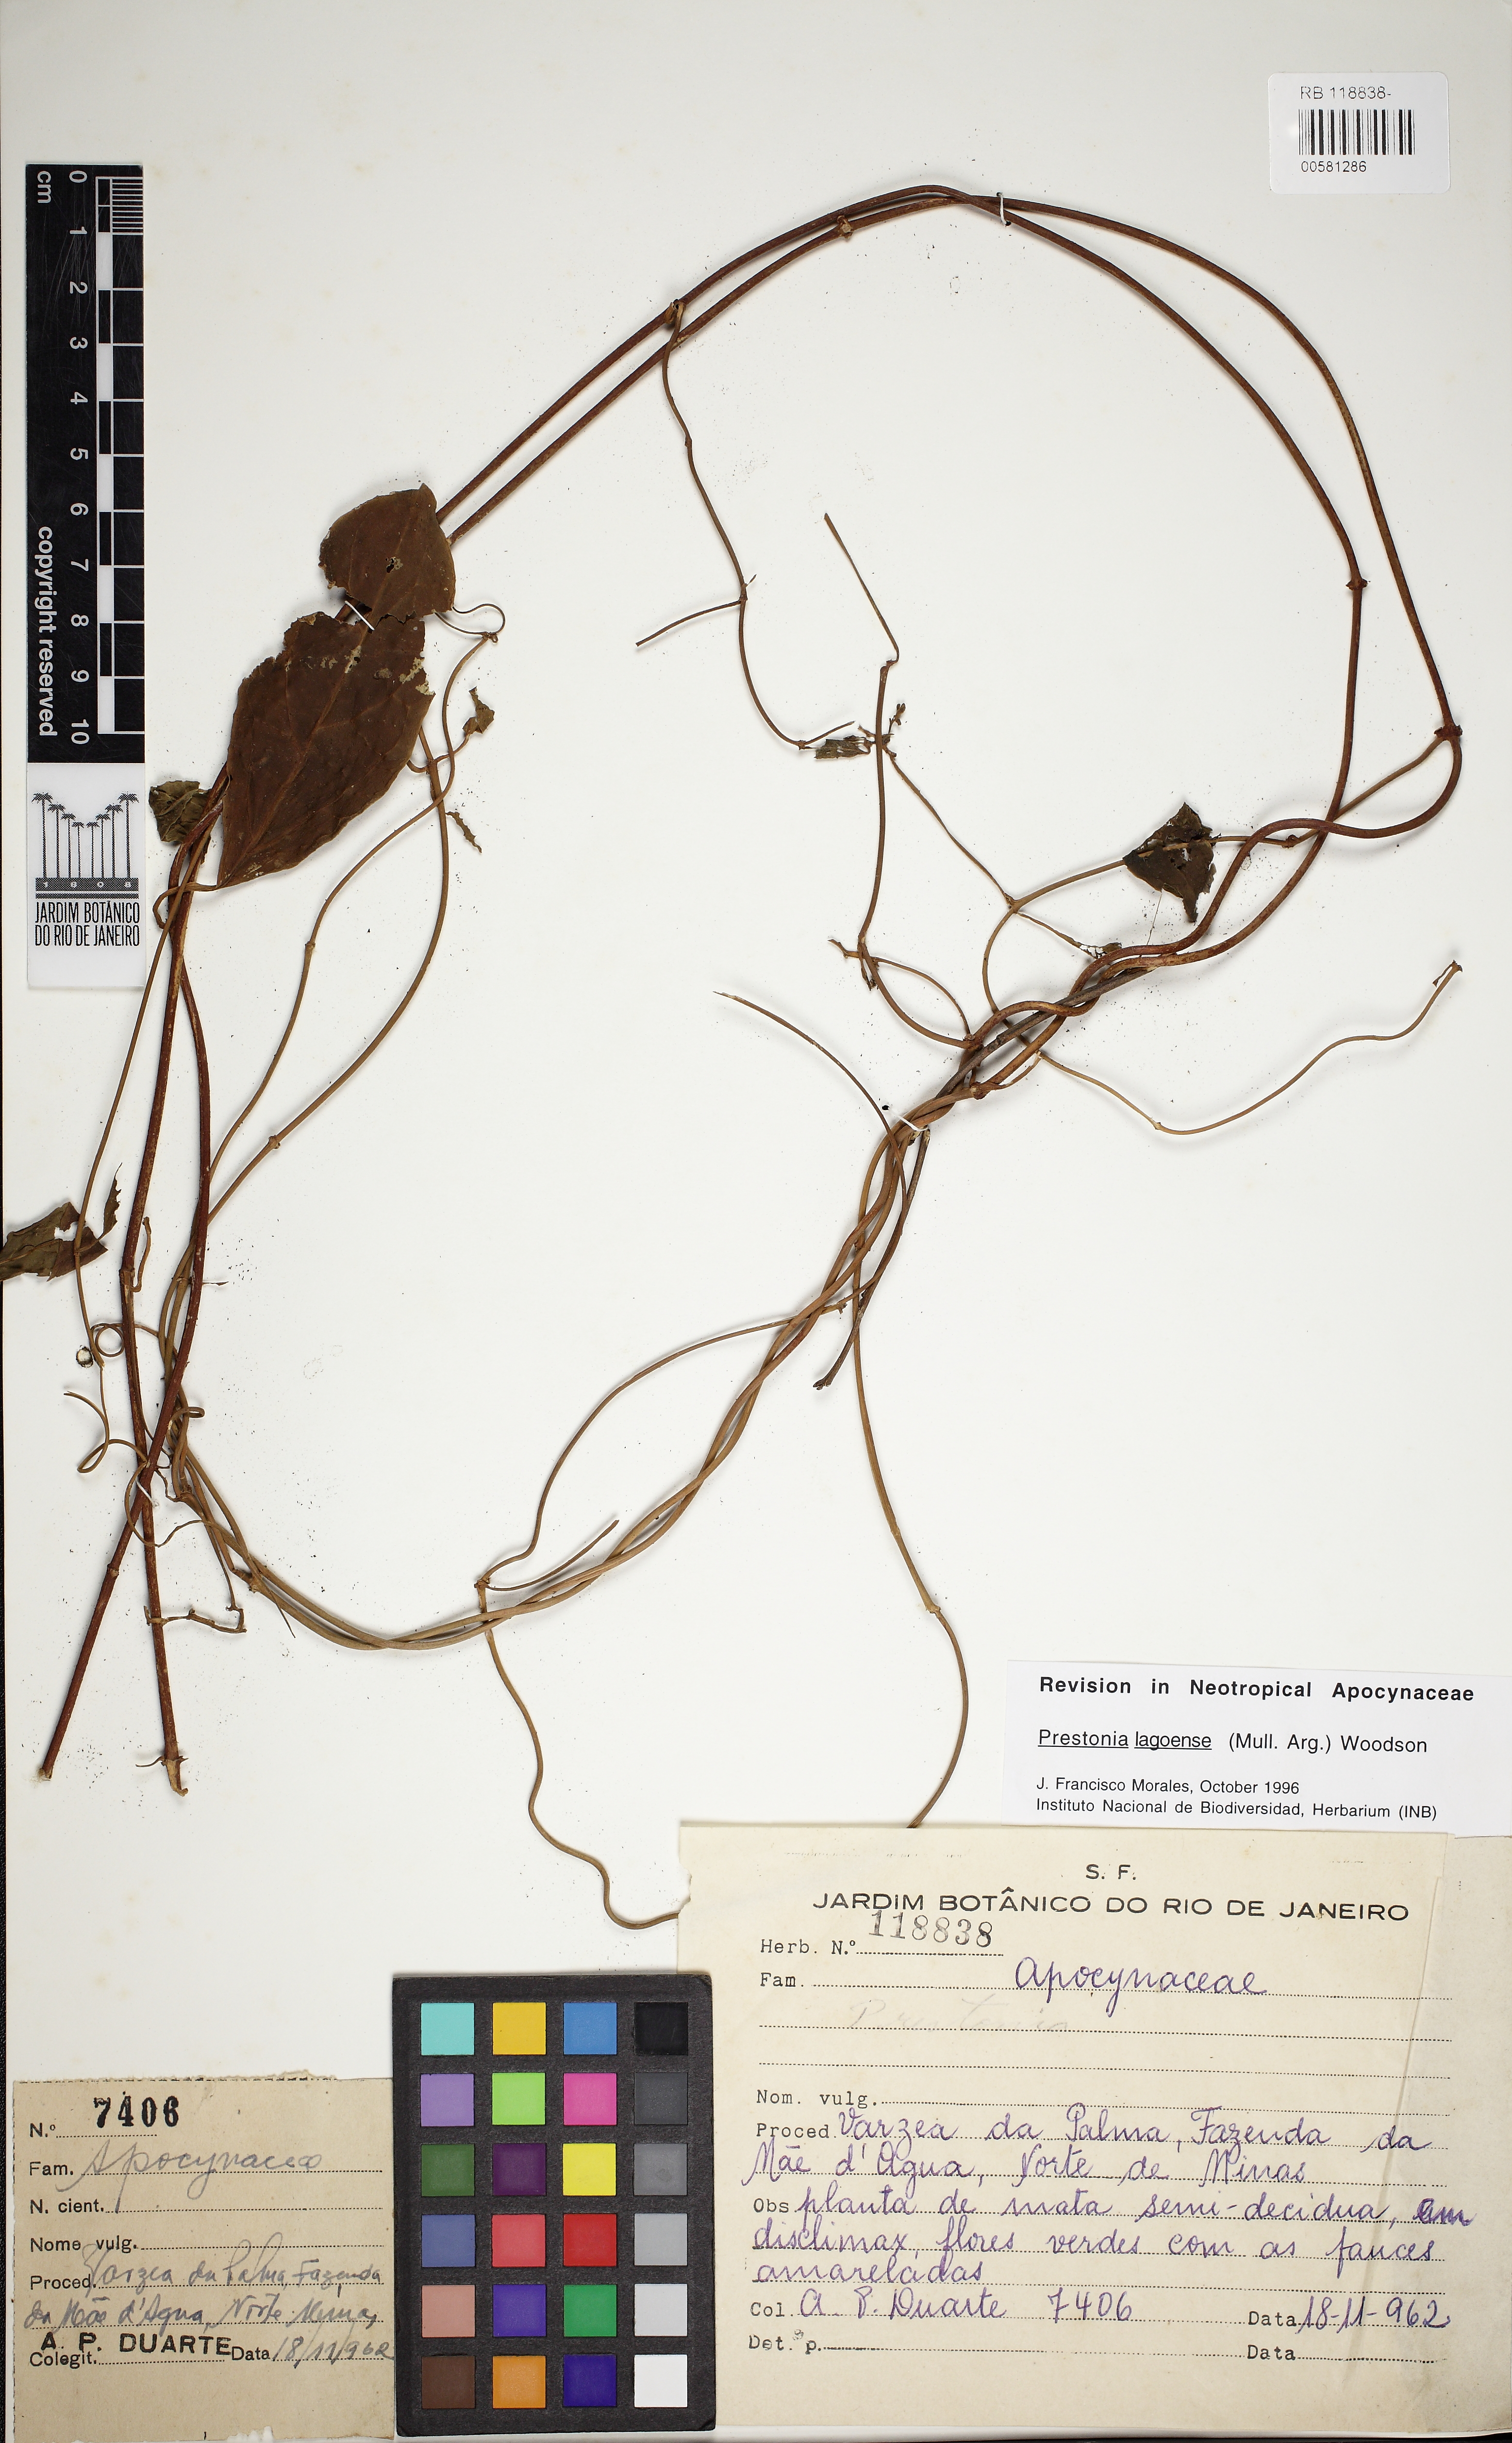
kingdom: Plantae
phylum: Tracheophyta
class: Magnoliopsida
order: Gentianales
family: Apocynaceae
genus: Prestonia
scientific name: Prestonia lagoensis
